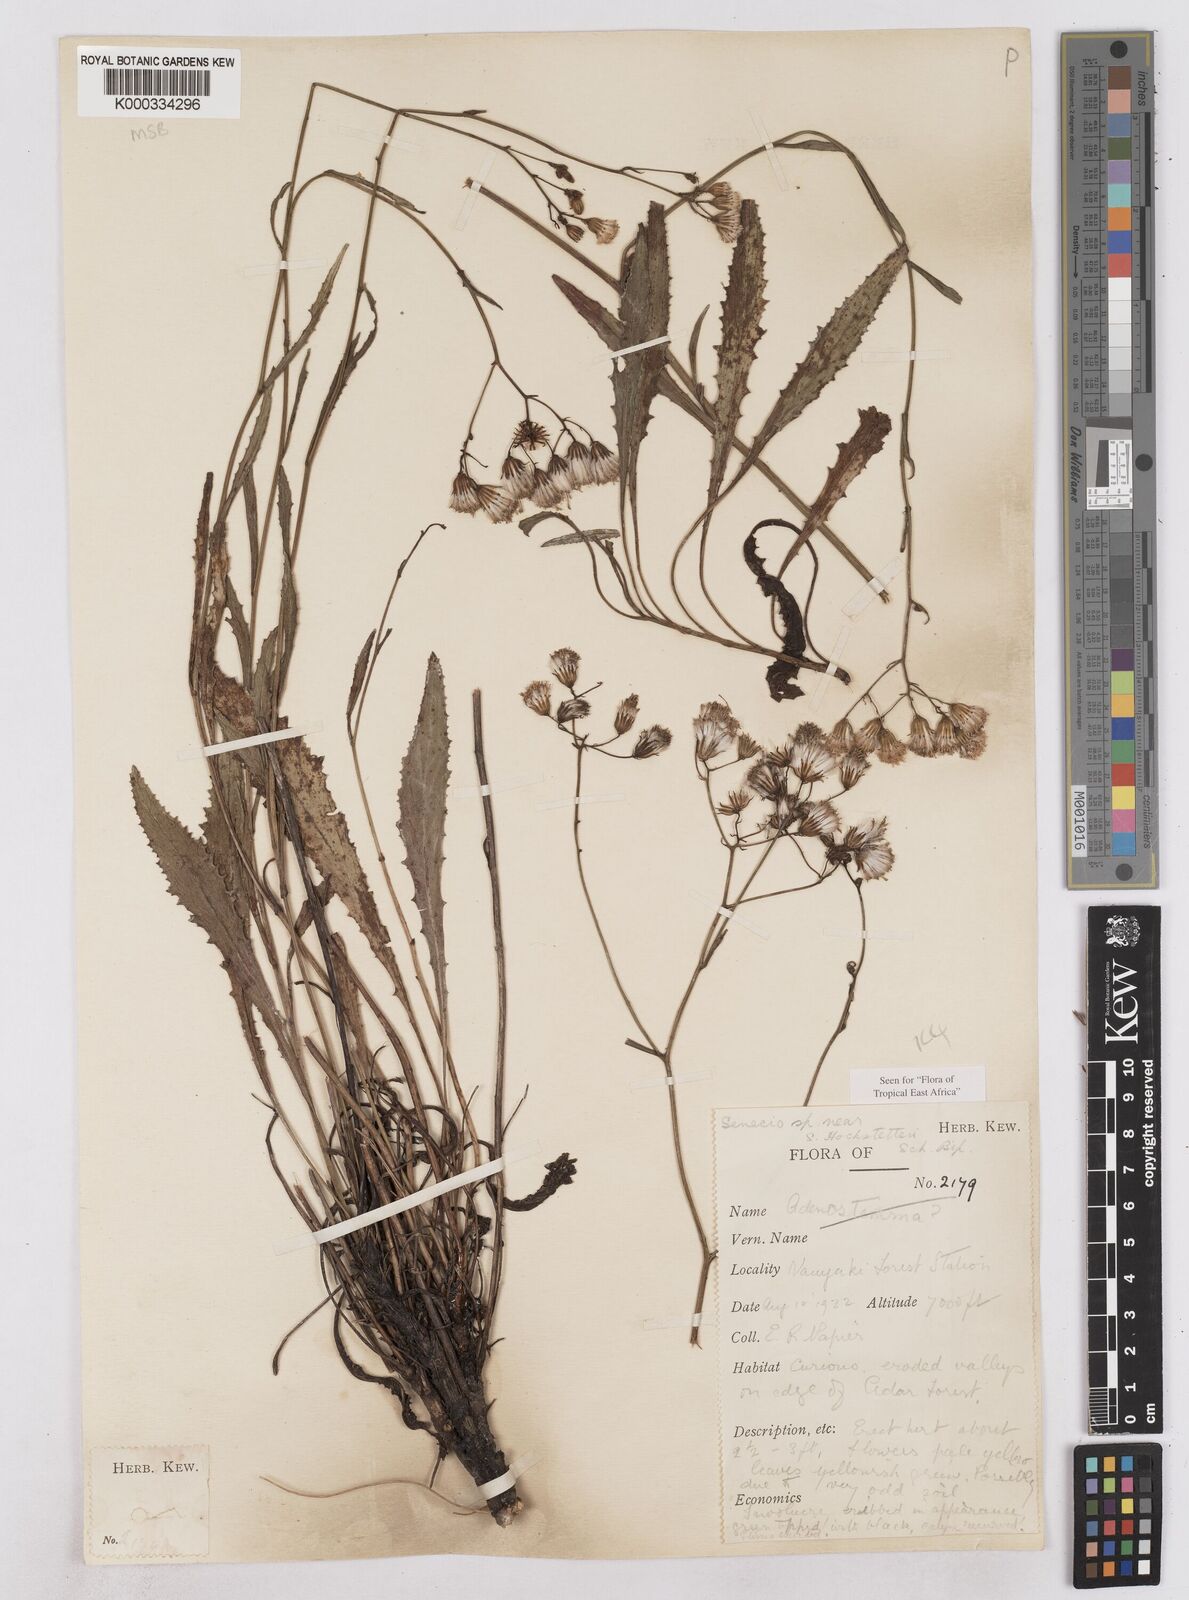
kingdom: Plantae
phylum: Tracheophyta
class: Magnoliopsida
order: Asterales
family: Asteraceae
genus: Senecio
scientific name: Senecio hochstetteri
